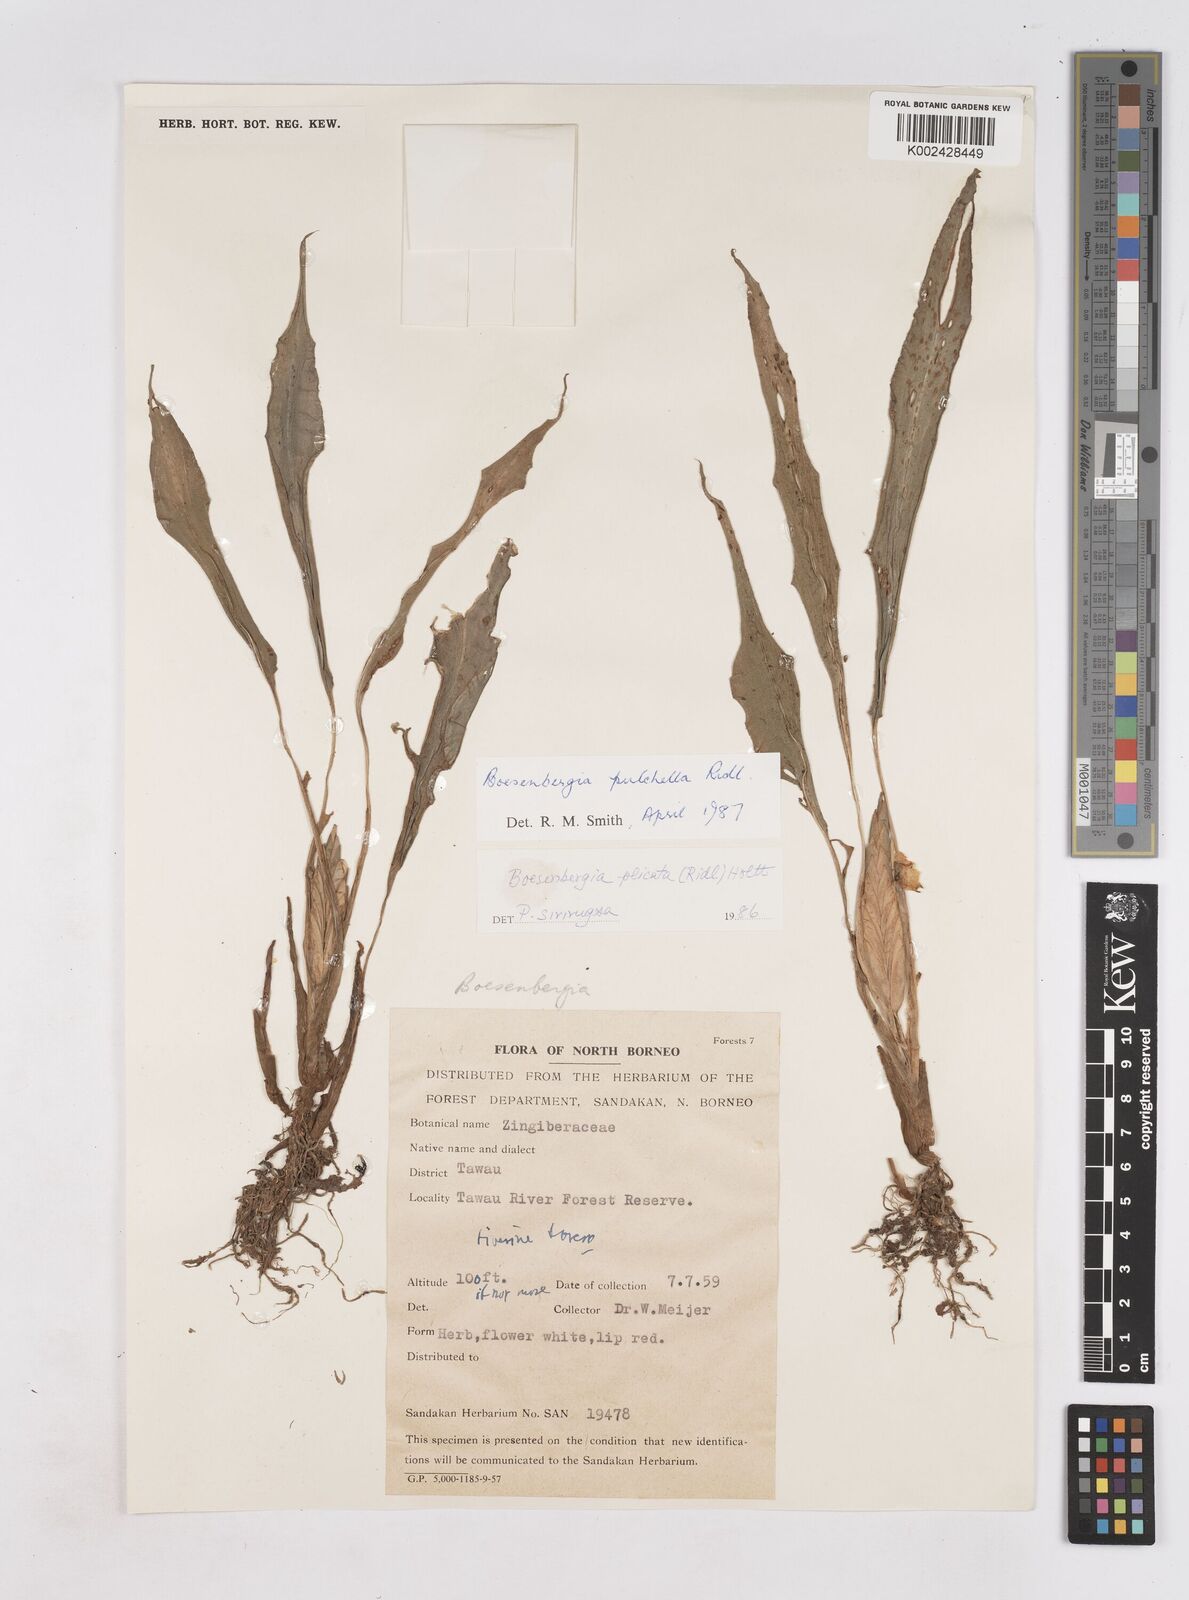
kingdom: Plantae
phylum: Tracheophyta
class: Liliopsida
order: Zingiberales
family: Zingiberaceae
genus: Boesenbergia
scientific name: Boesenbergia pulchella
